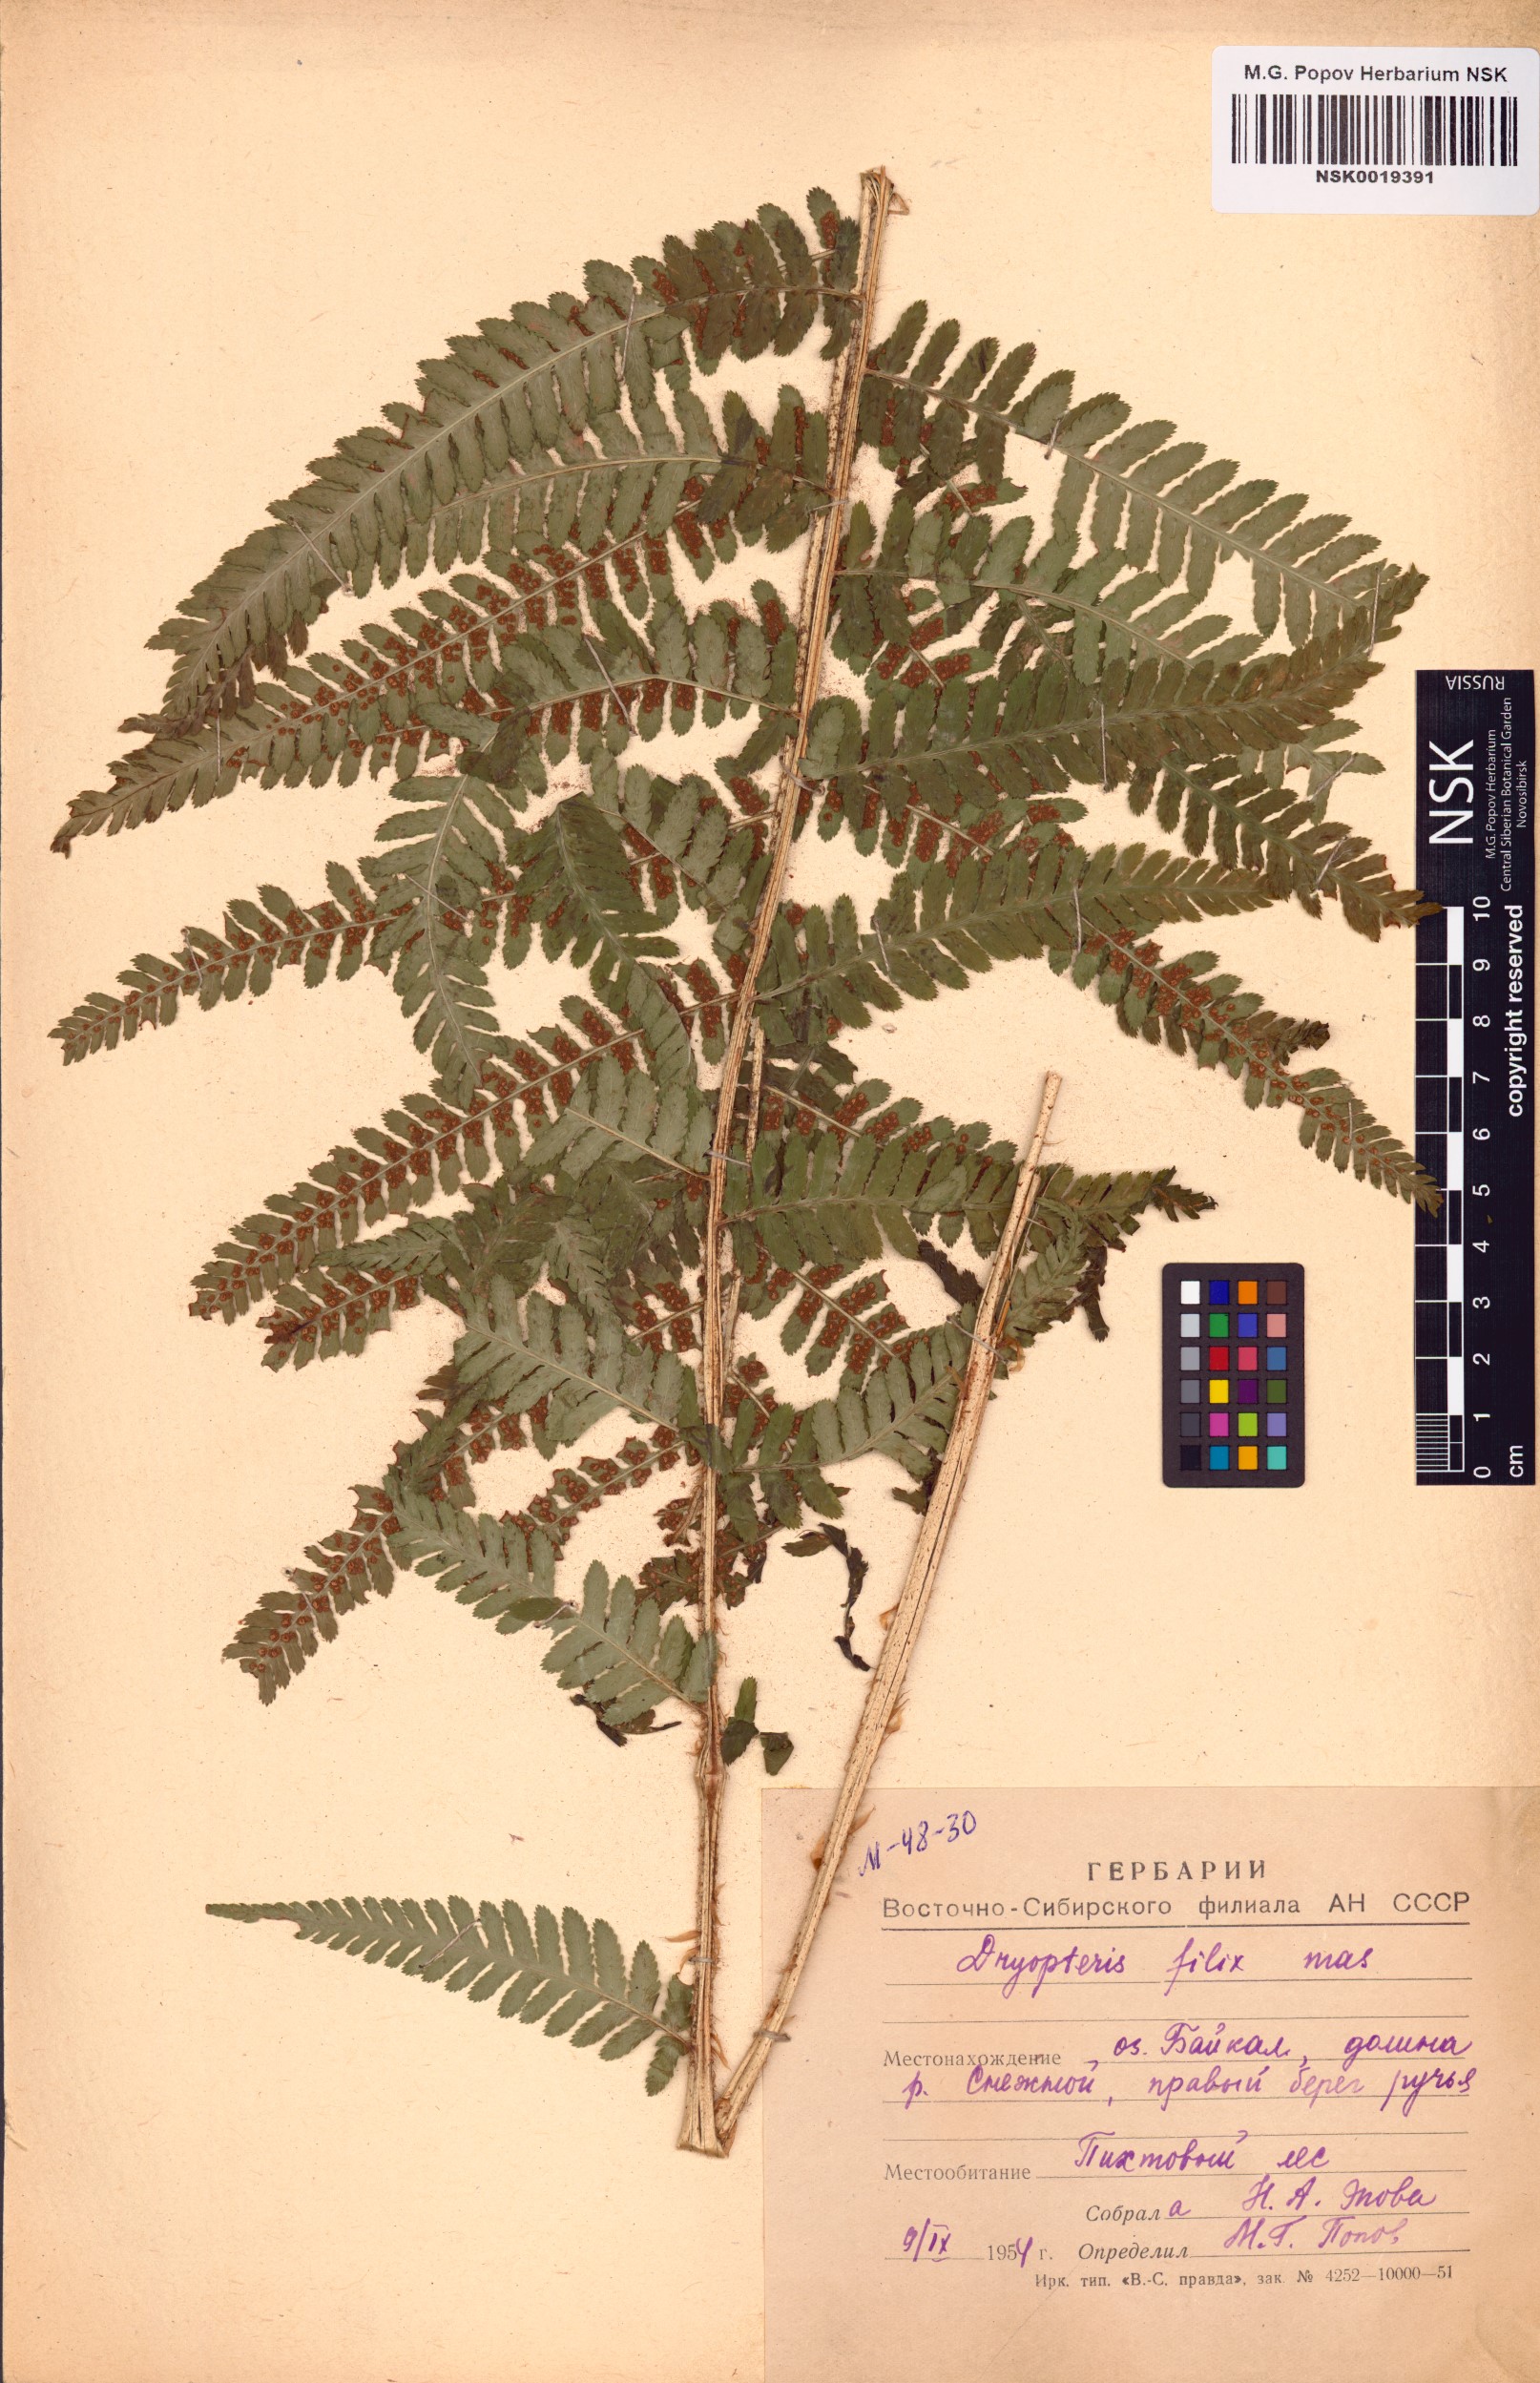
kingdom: Plantae
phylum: Tracheophyta
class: Polypodiopsida
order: Polypodiales
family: Dryopteridaceae
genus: Dryopteris
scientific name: Dryopteris filix-mas
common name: Male fern
